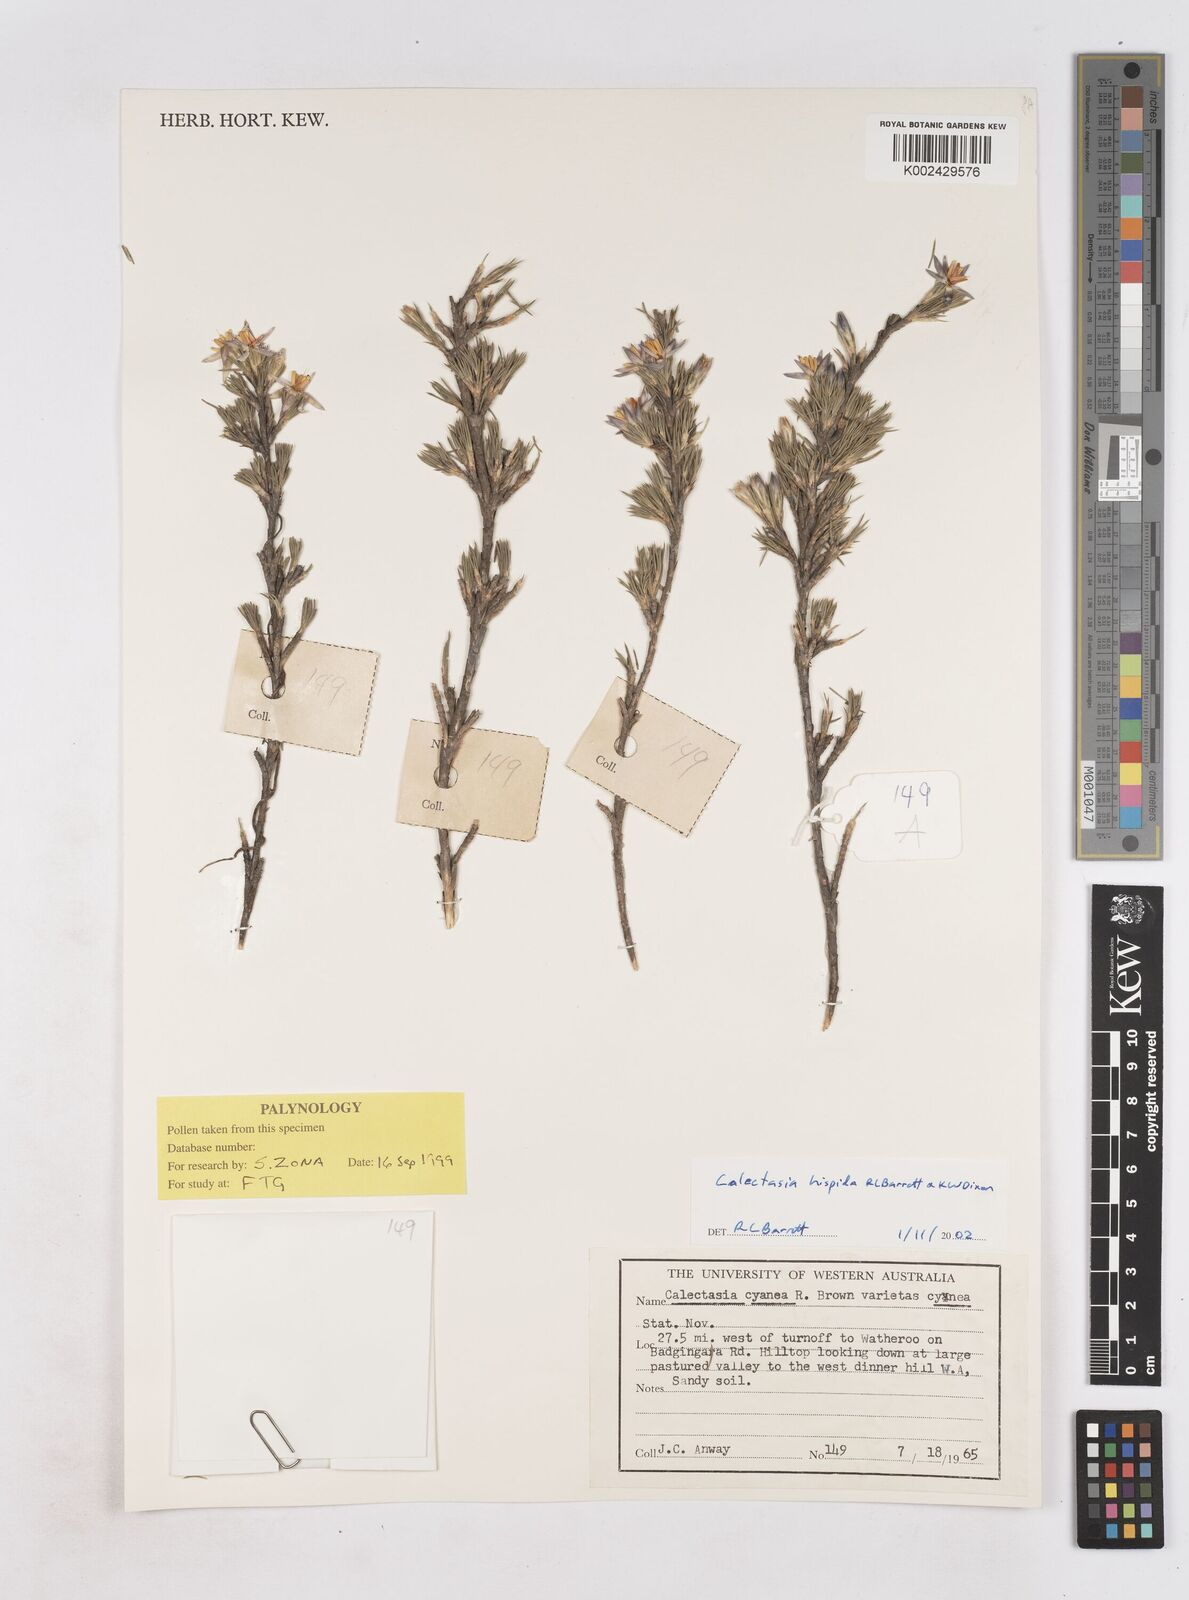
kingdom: Plantae
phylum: Tracheophyta
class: Liliopsida
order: Arecales
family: Dasypogonaceae
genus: Calectasia
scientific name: Calectasia hispida
